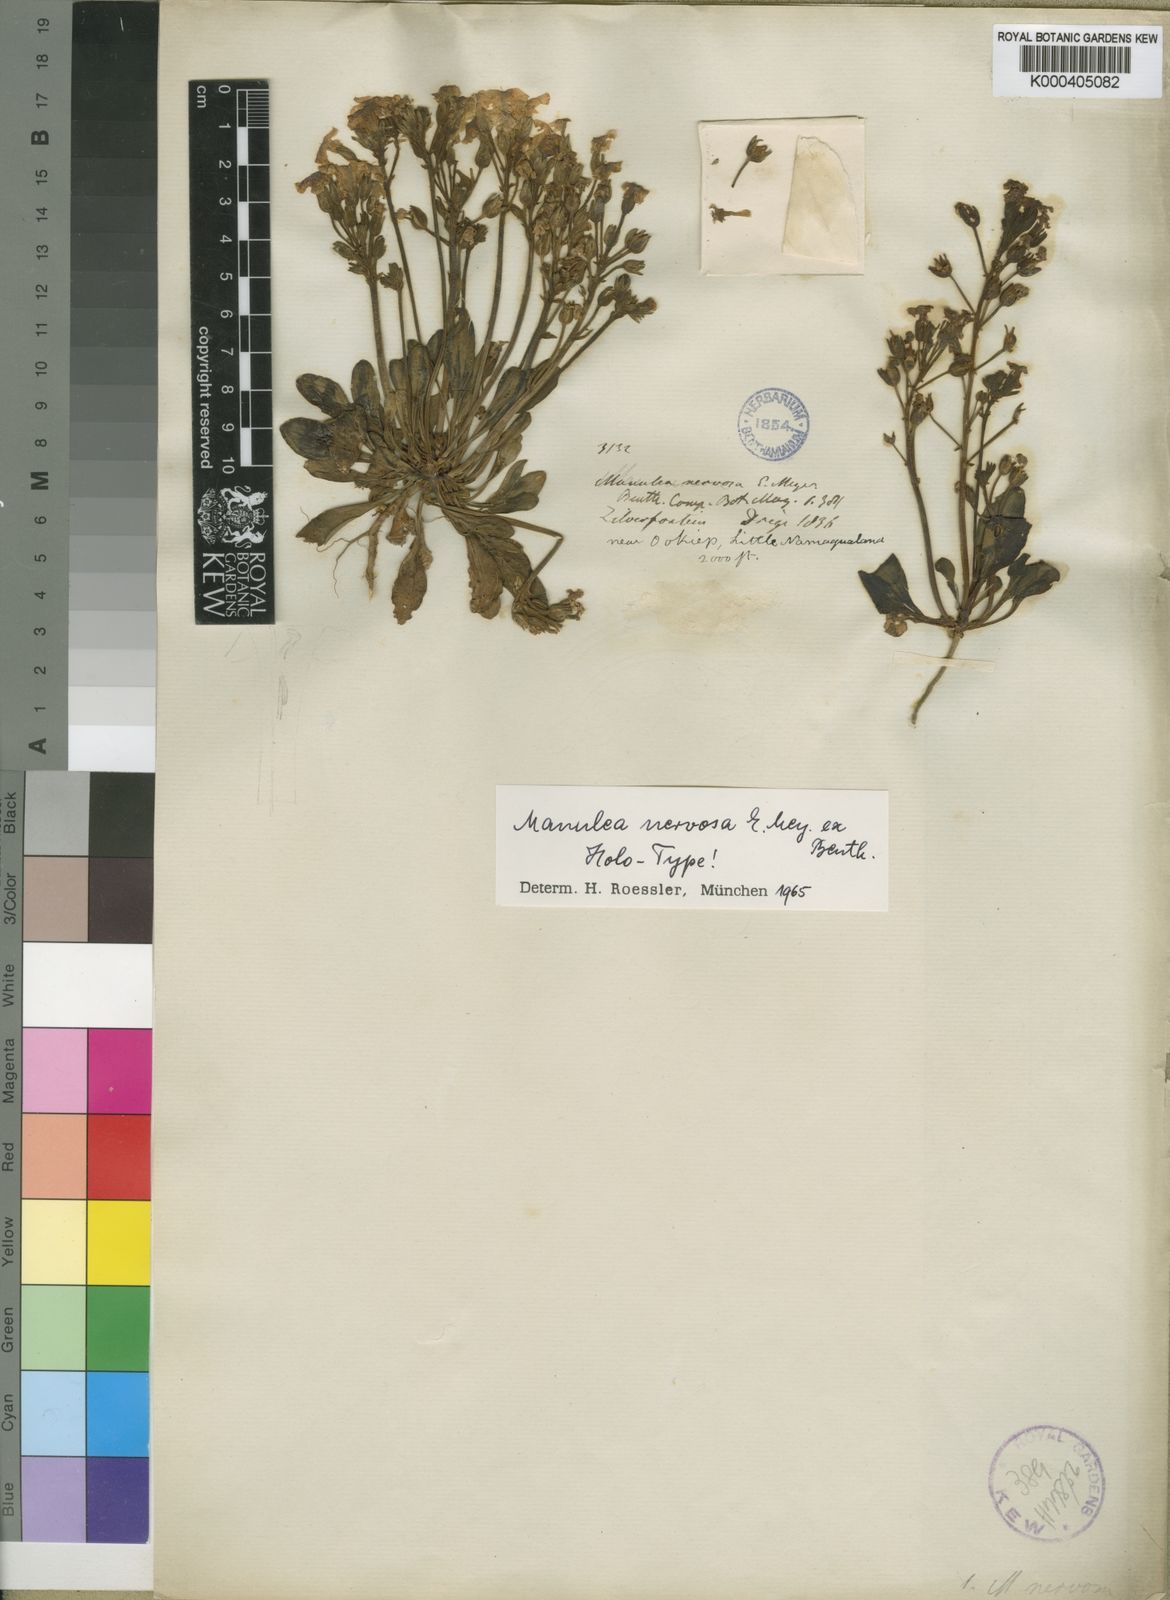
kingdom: Plantae
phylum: Tracheophyta
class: Magnoliopsida
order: Lamiales
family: Scrophulariaceae
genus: Manulea
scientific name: Manulea nervosa
